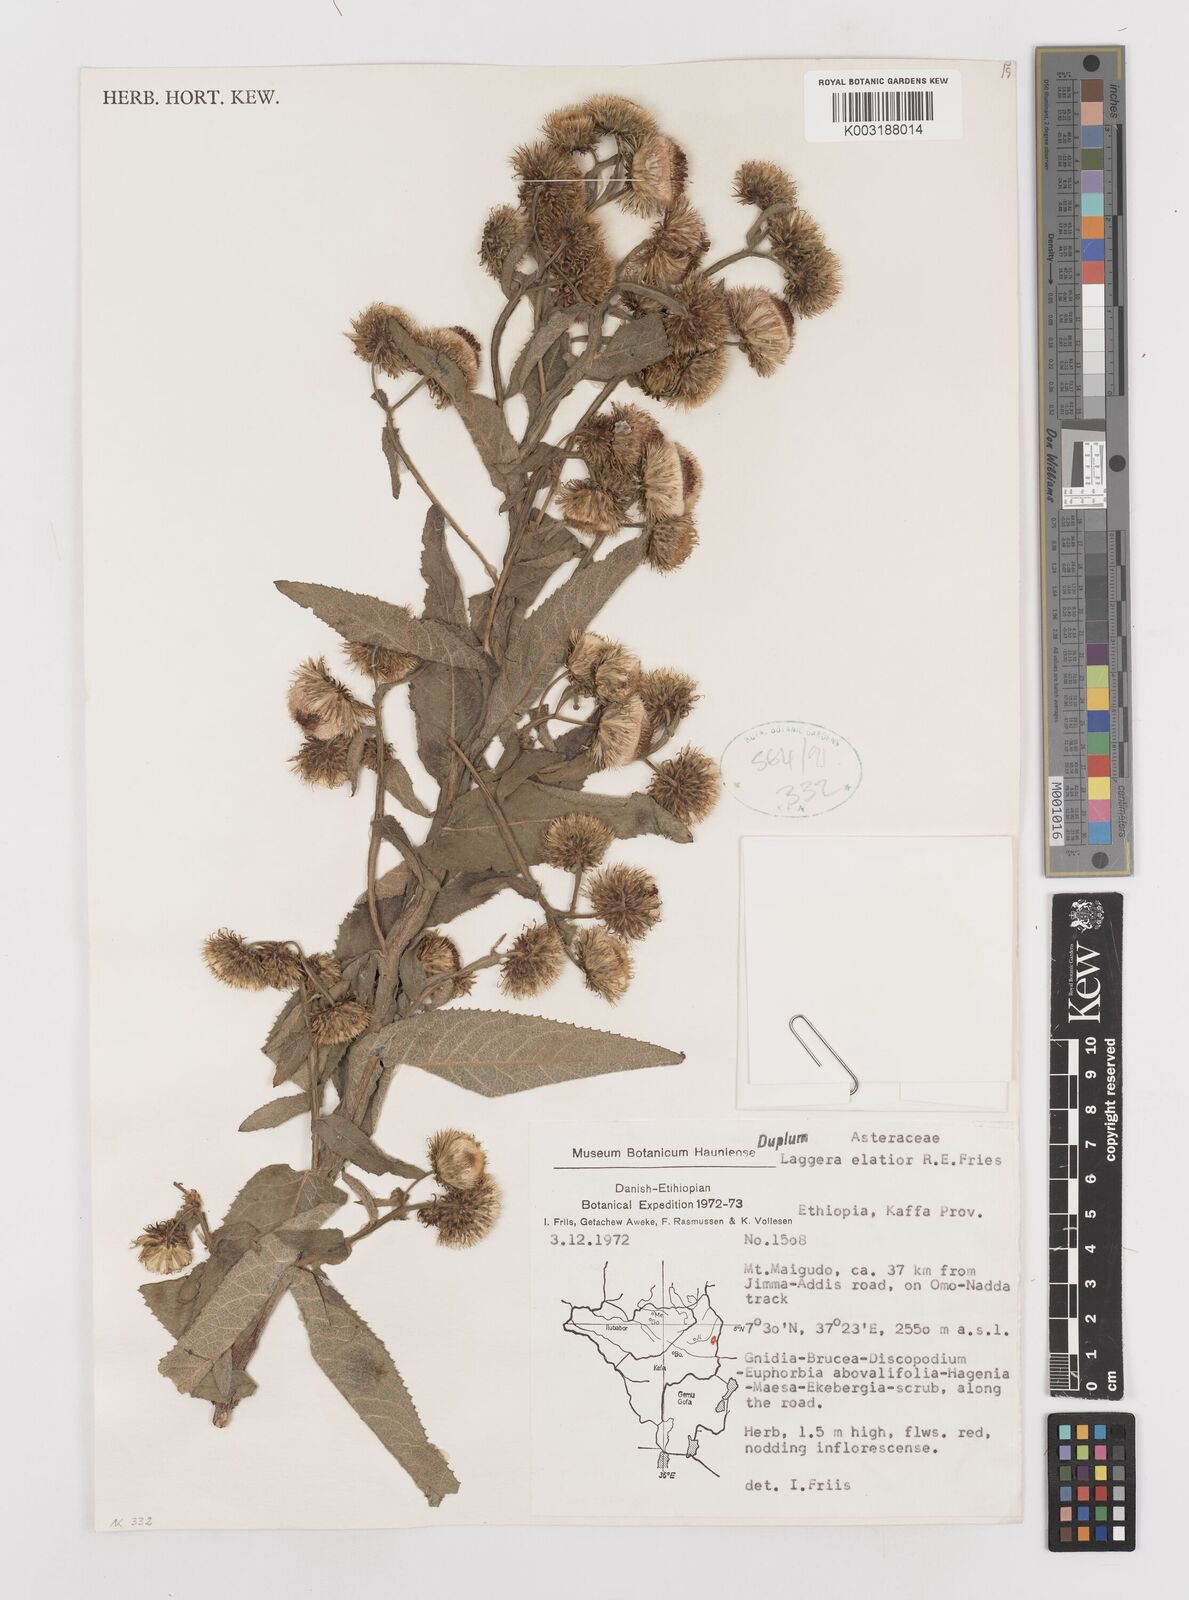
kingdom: Plantae
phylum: Tracheophyta
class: Magnoliopsida
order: Asterales
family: Asteraceae
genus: Laggera
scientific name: Laggera
